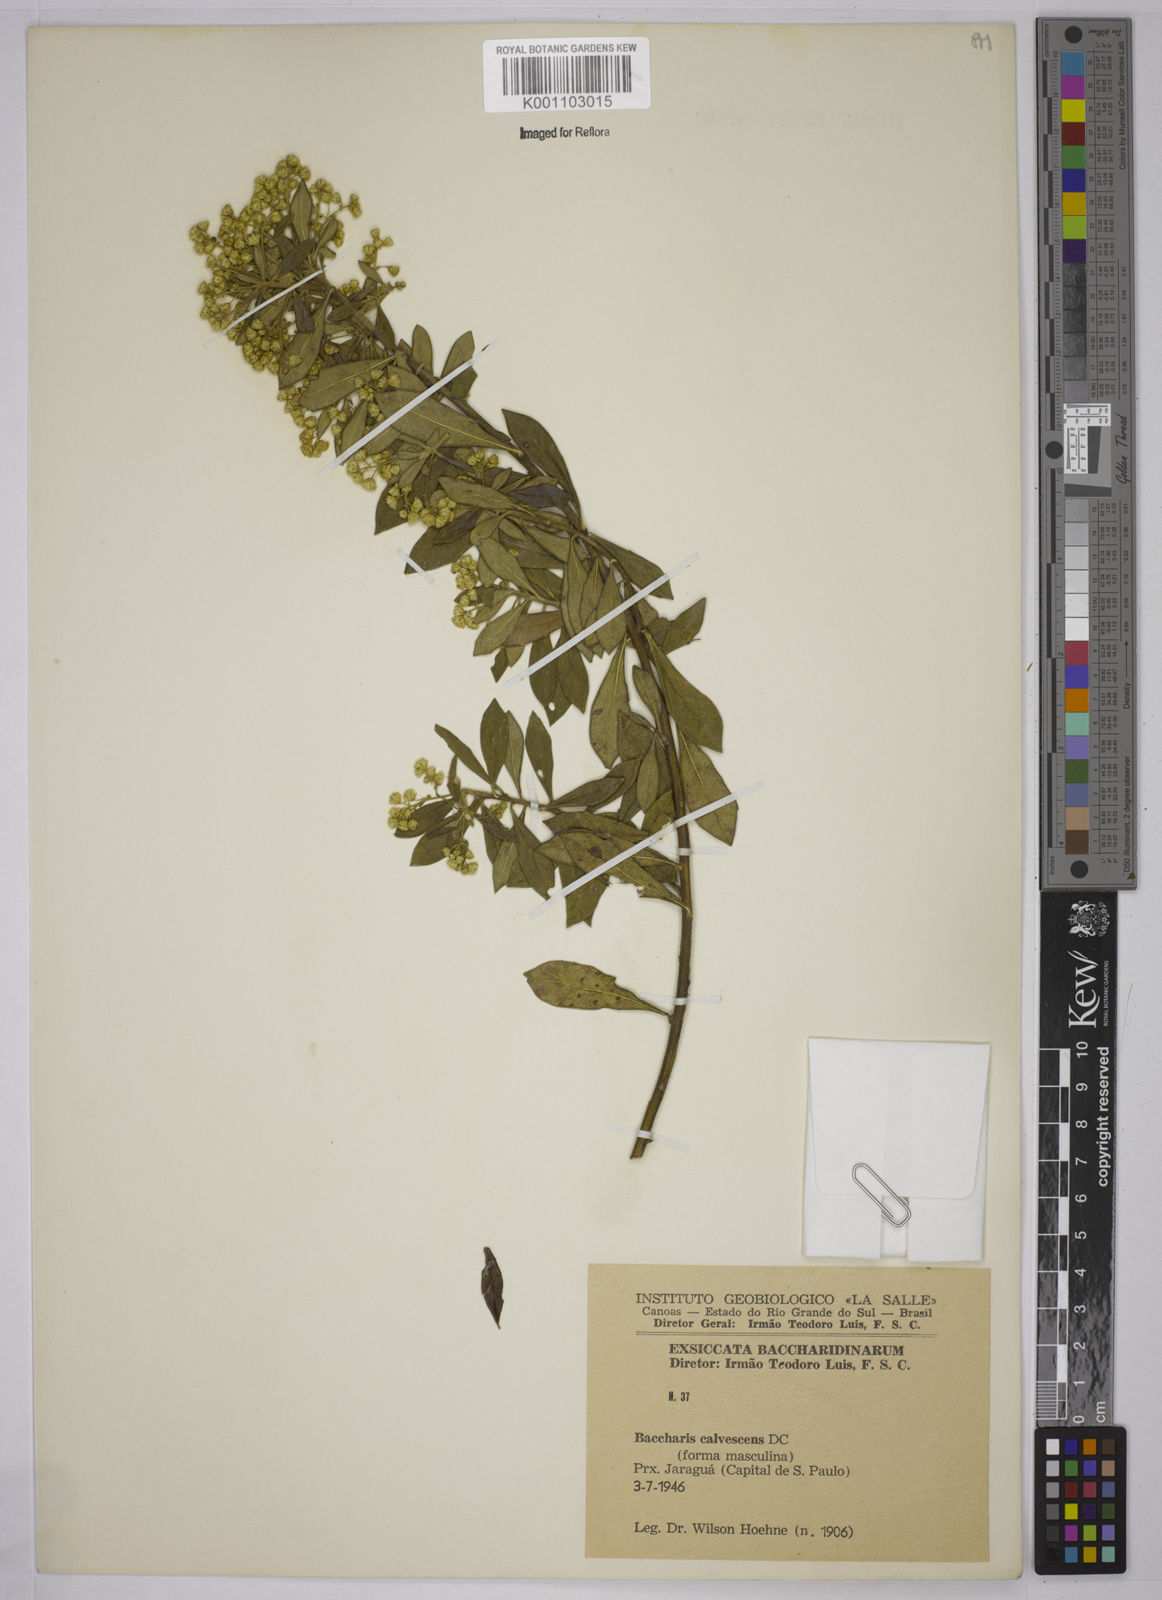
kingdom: Plantae
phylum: Tracheophyta
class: Magnoliopsida
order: Asterales
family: Asteraceae
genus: Baccharis
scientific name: Baccharis calvescens
